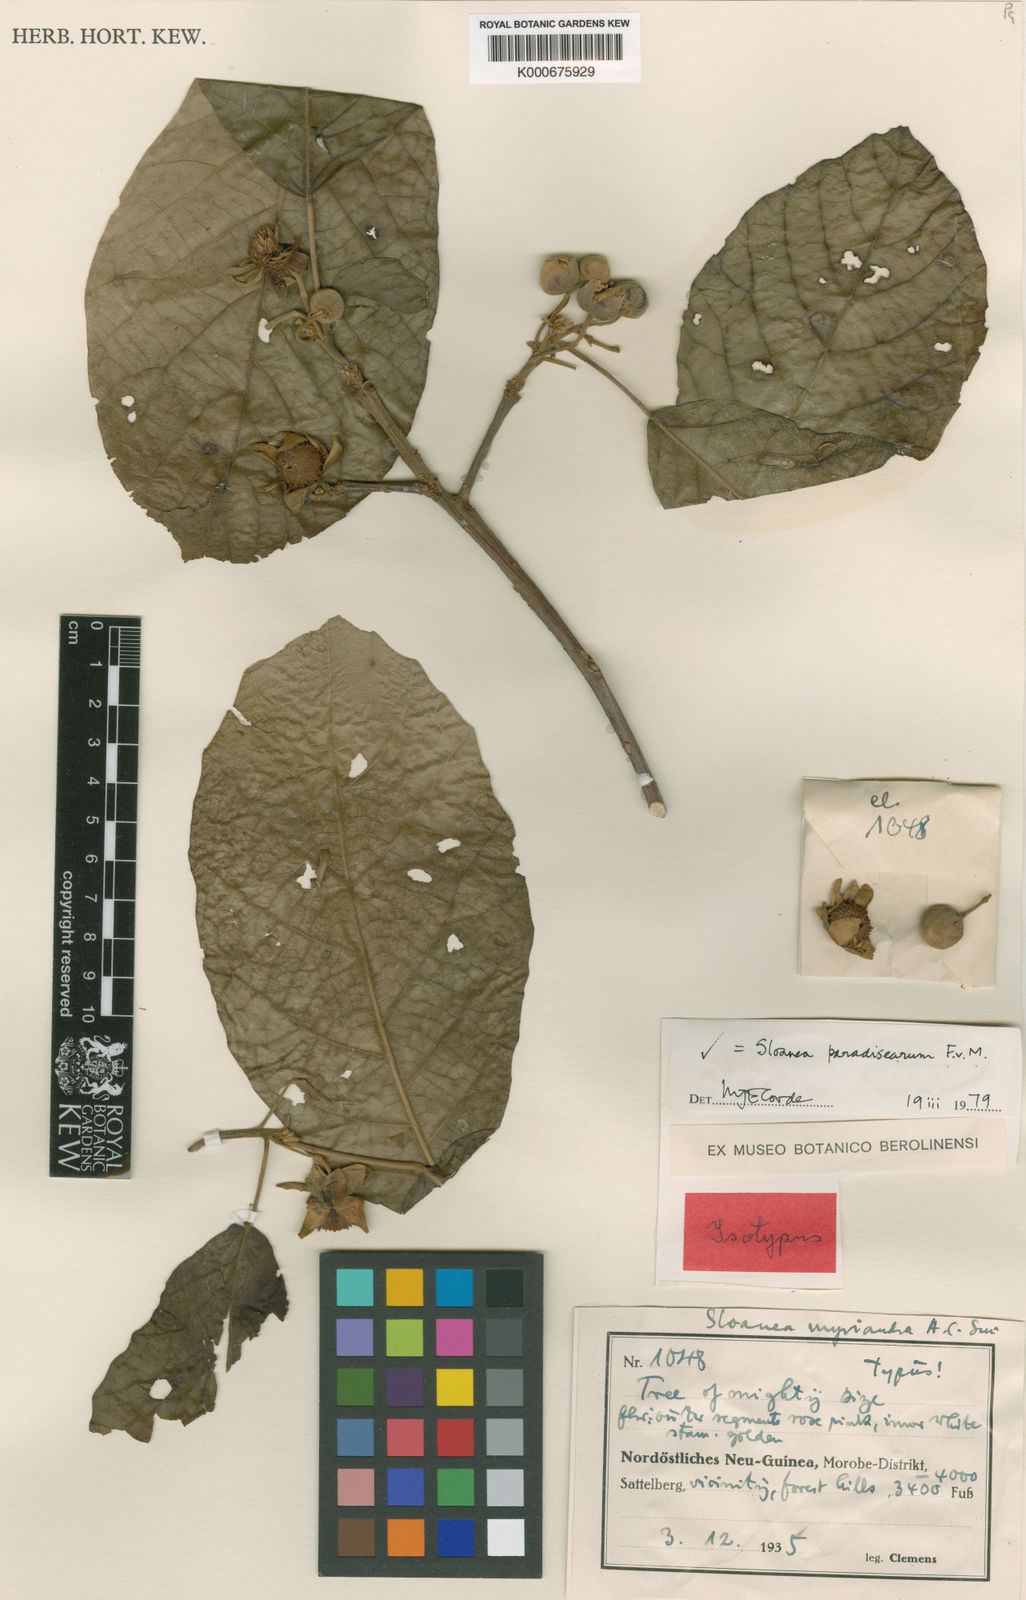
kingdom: Plantae
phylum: Tracheophyta
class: Magnoliopsida
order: Oxalidales
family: Elaeocarpaceae
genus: Sloanea
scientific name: Sloanea paradisearum
